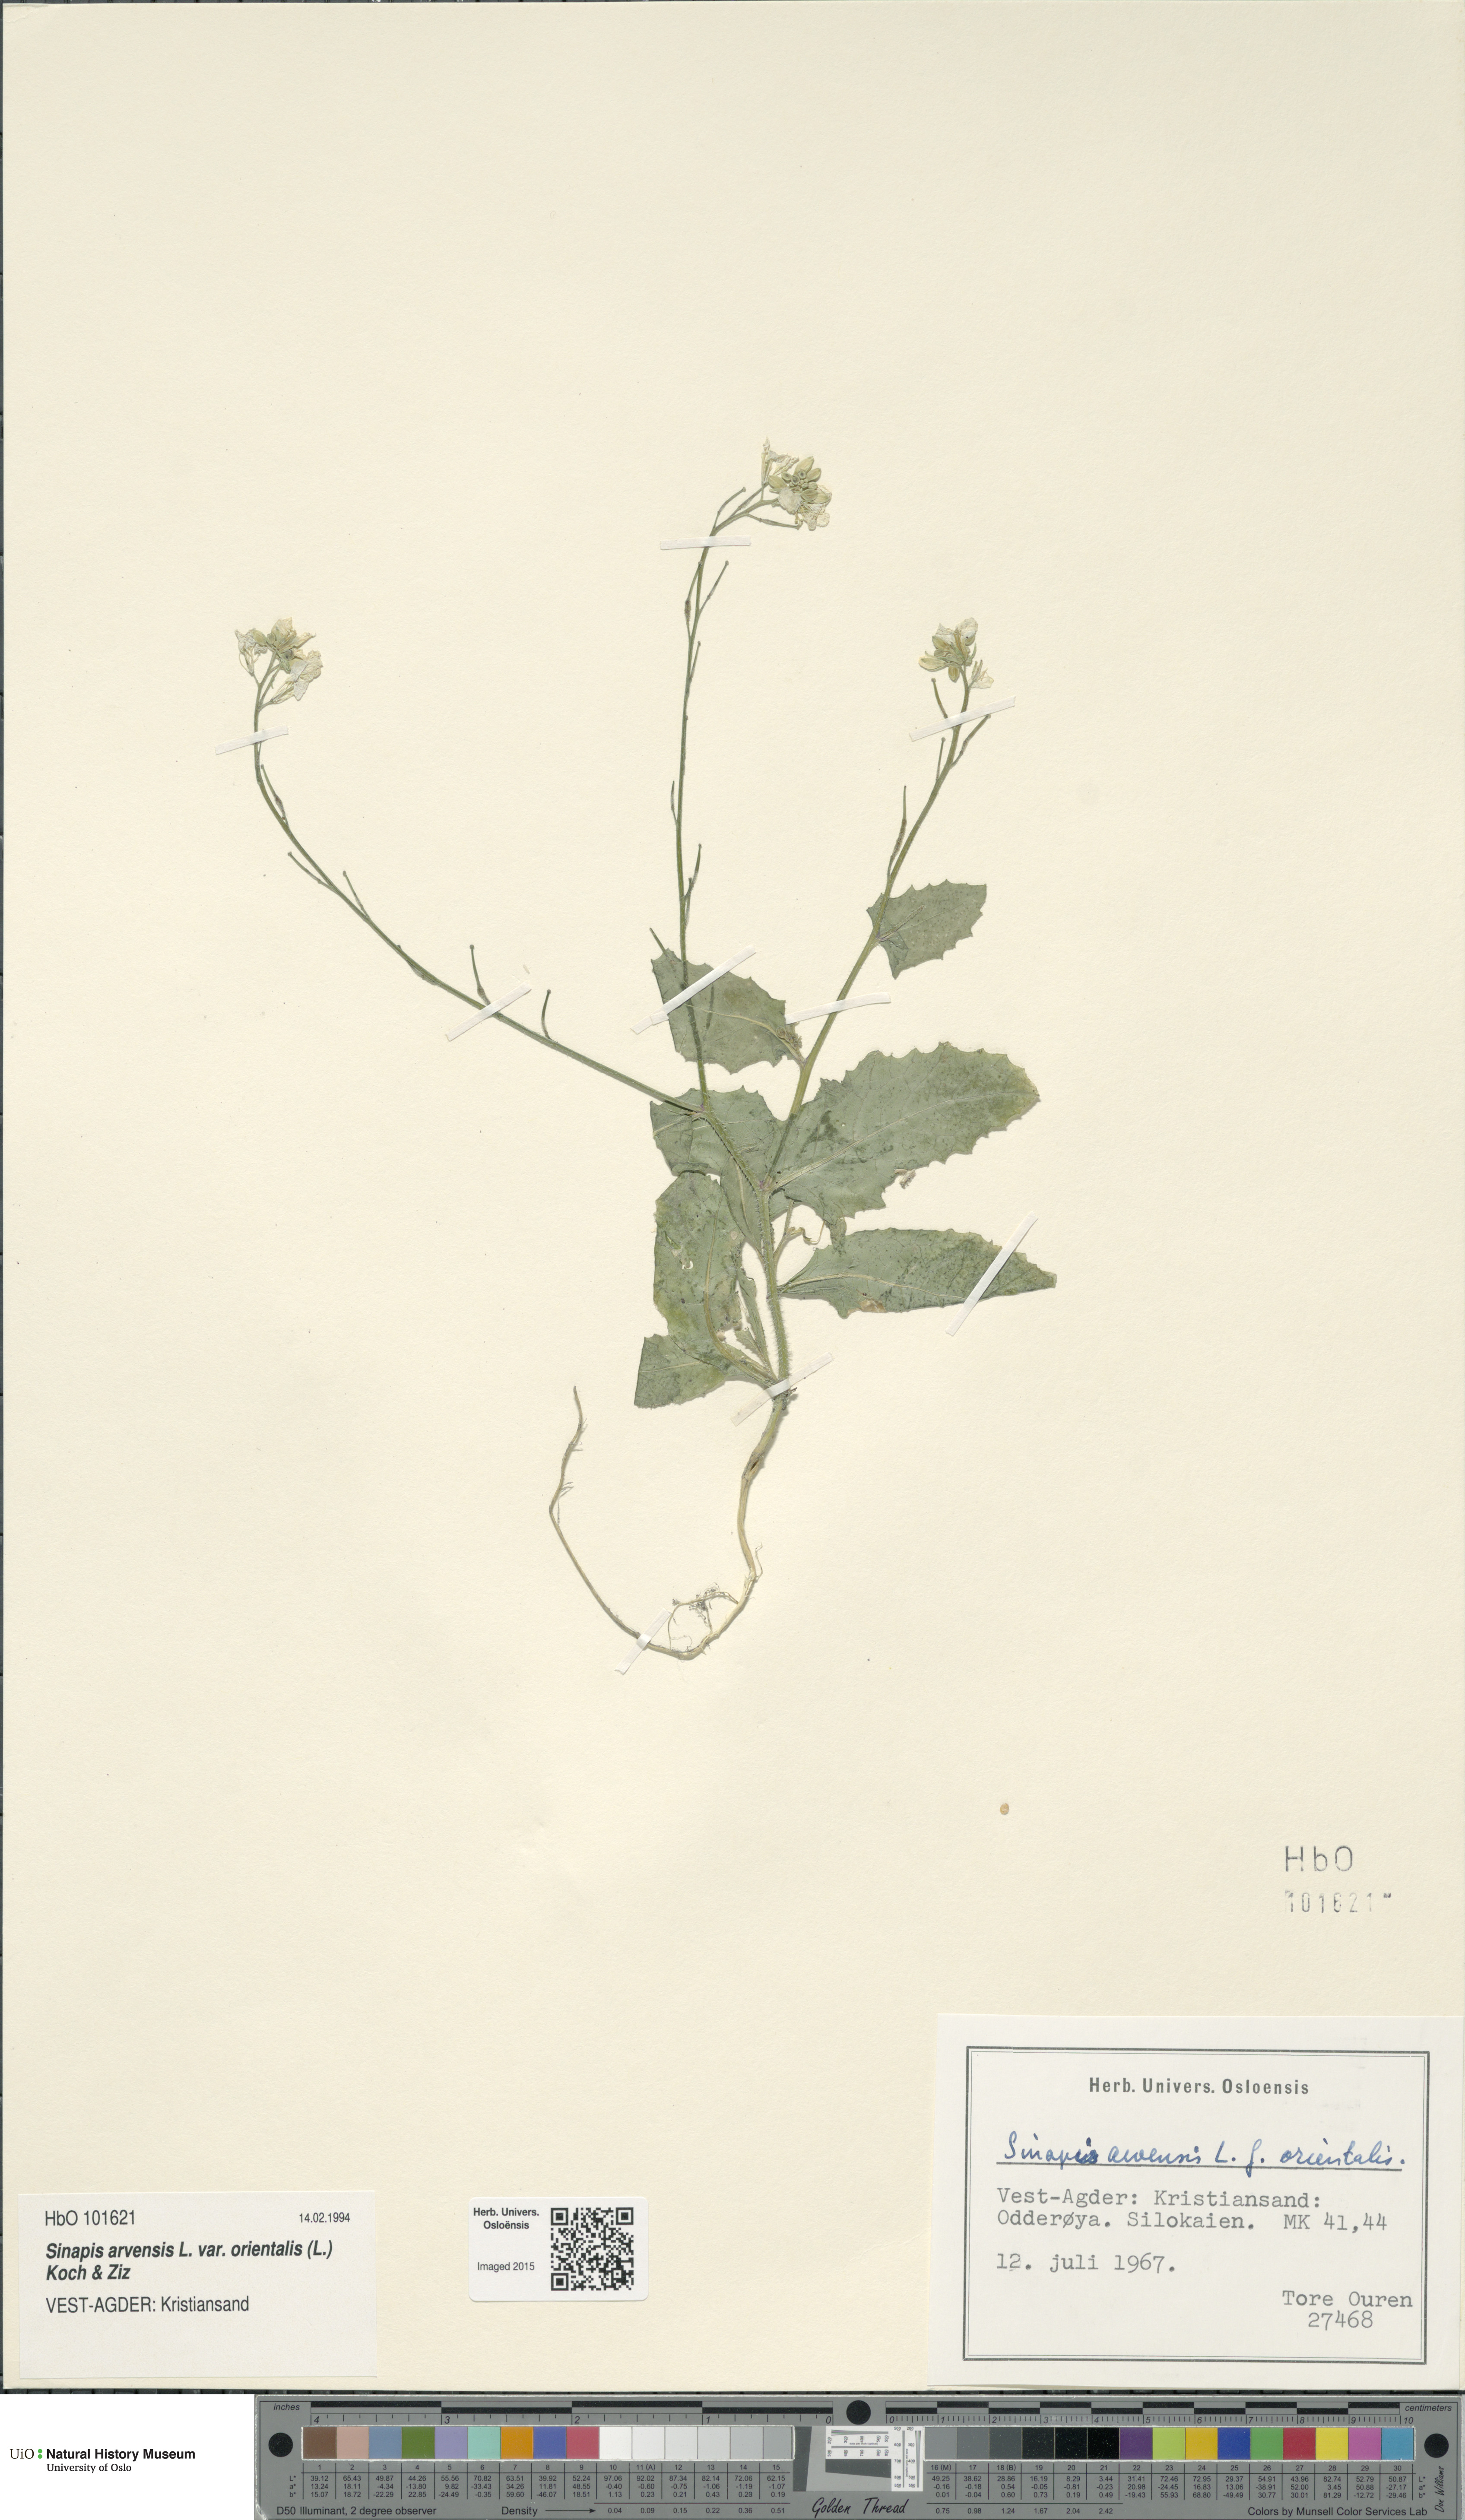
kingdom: Plantae
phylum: Tracheophyta
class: Magnoliopsida
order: Brassicales
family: Brassicaceae
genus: Sinapis
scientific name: Sinapis arvensis
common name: Charlock
